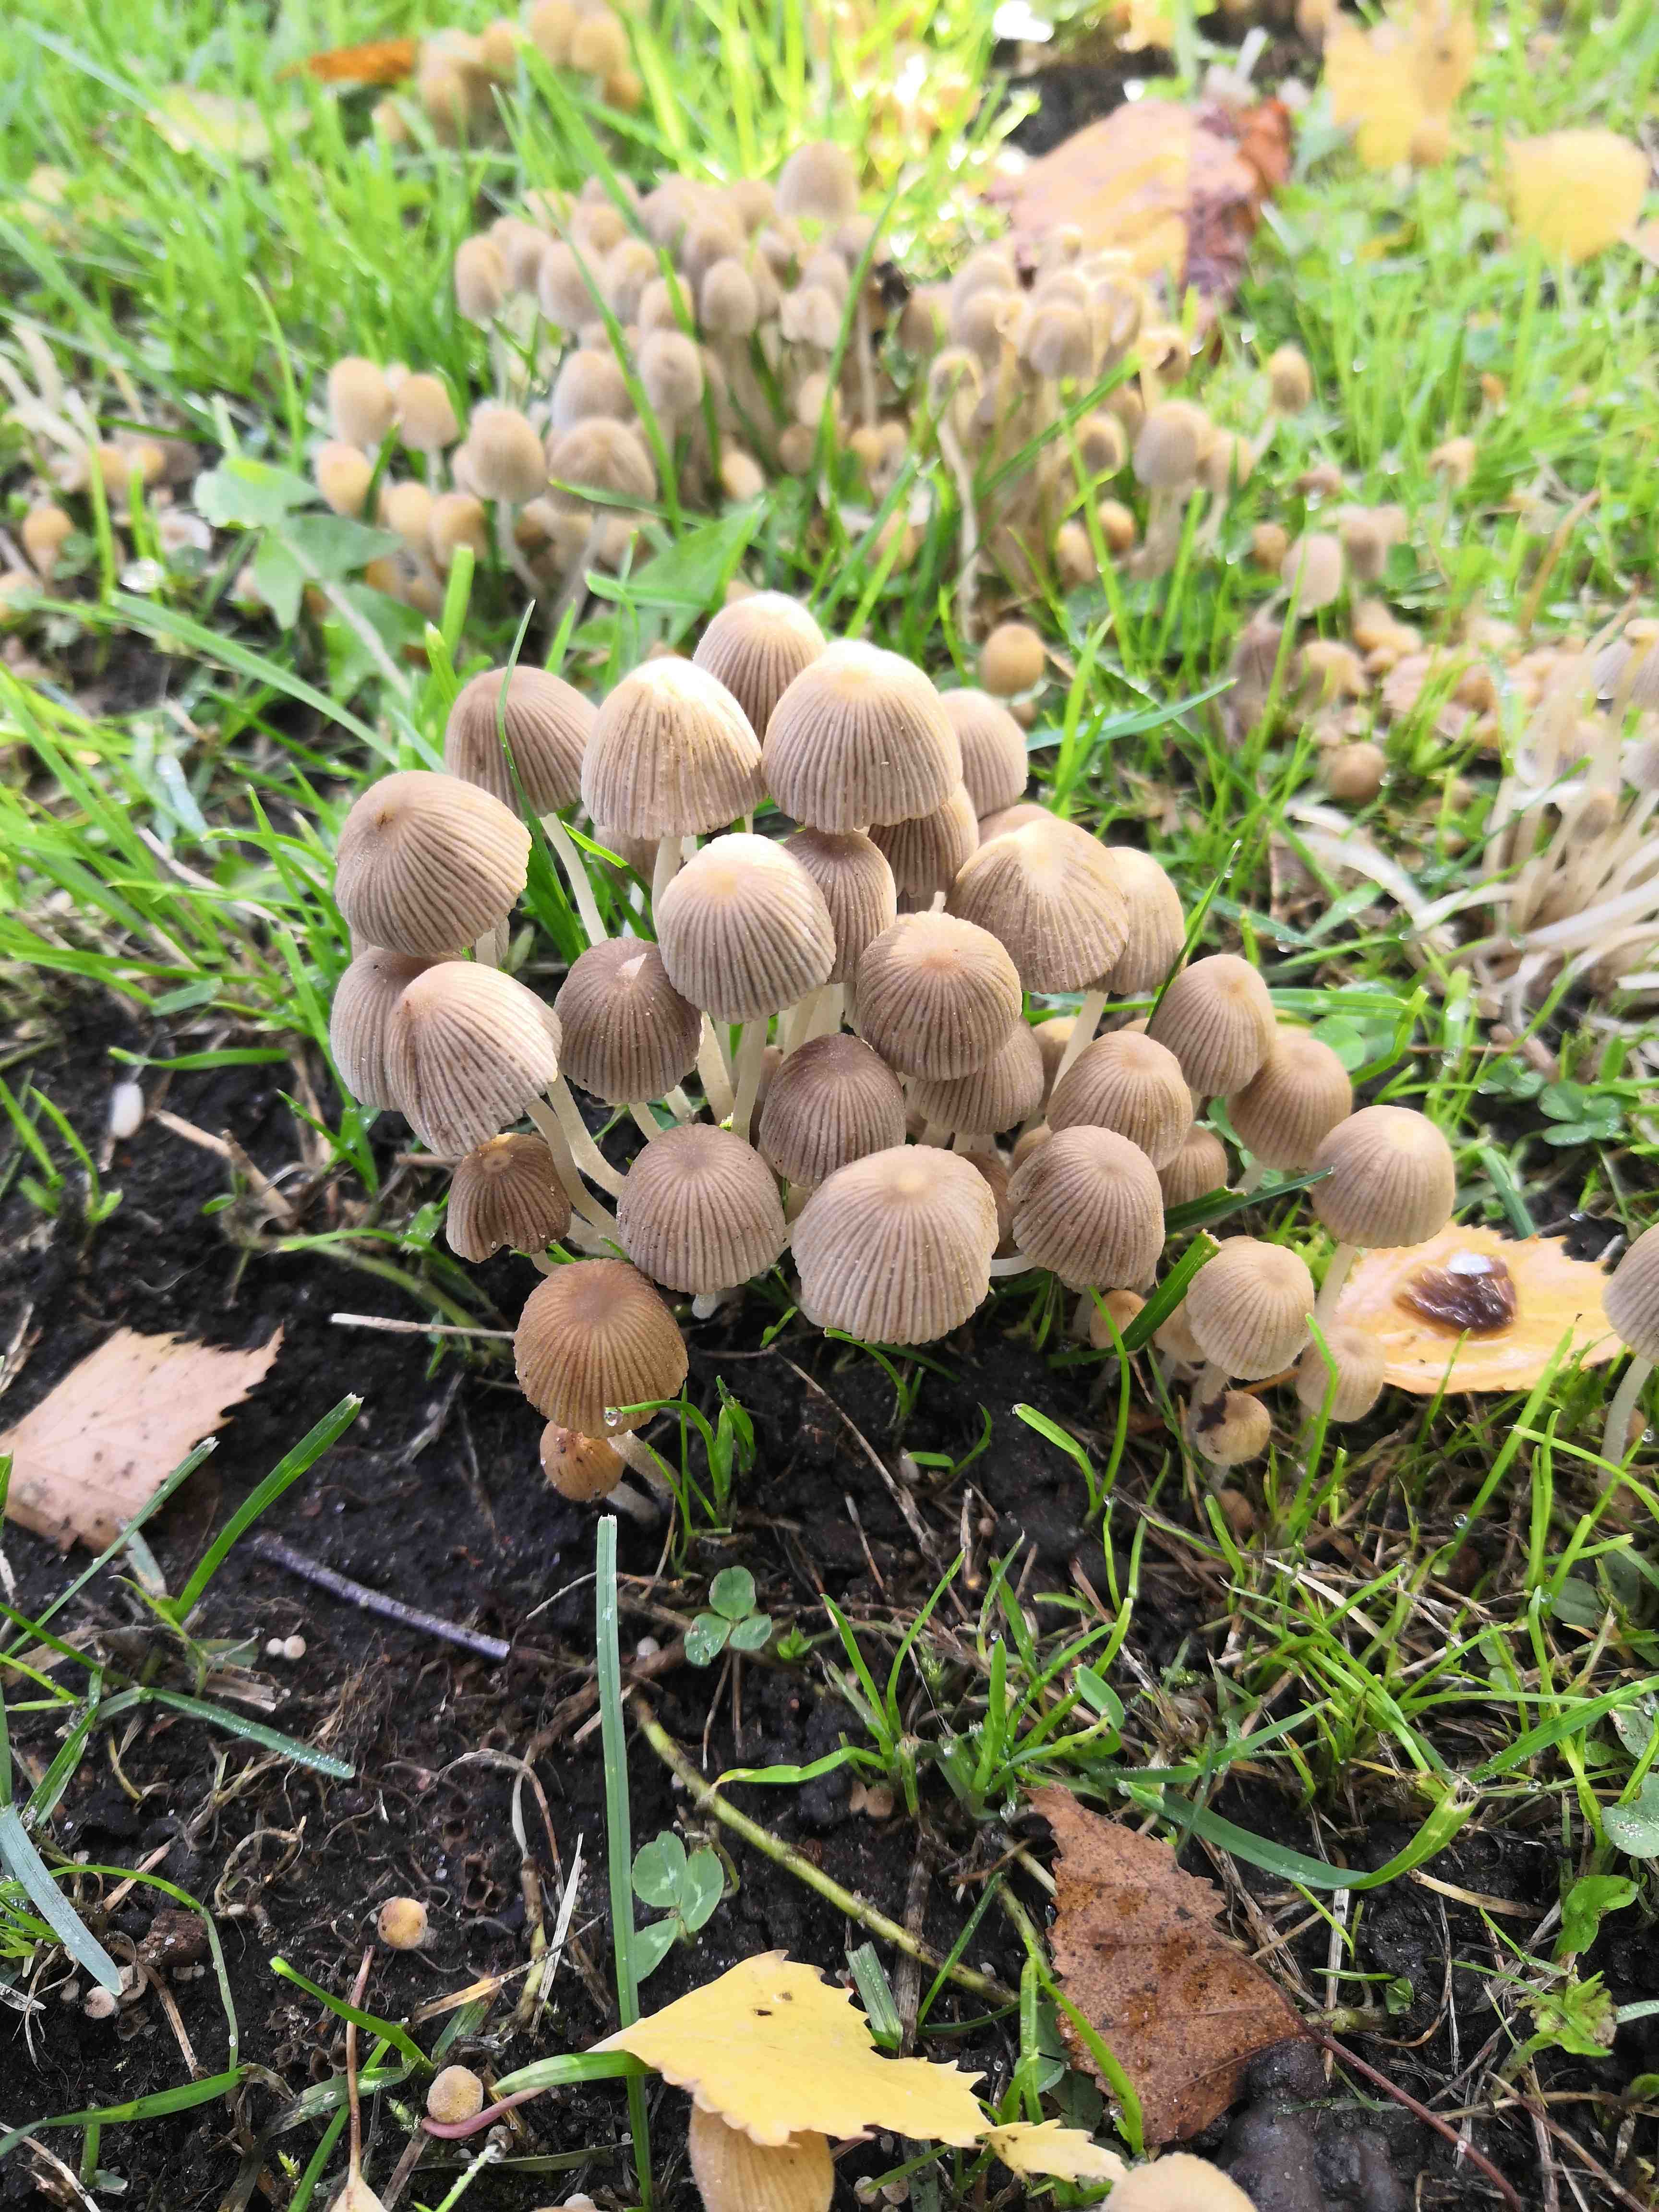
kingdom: Fungi
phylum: Basidiomycota
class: Agaricomycetes
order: Agaricales
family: Psathyrellaceae
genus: Coprinellus
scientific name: Coprinellus disseminatus
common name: bredsået blækhat
